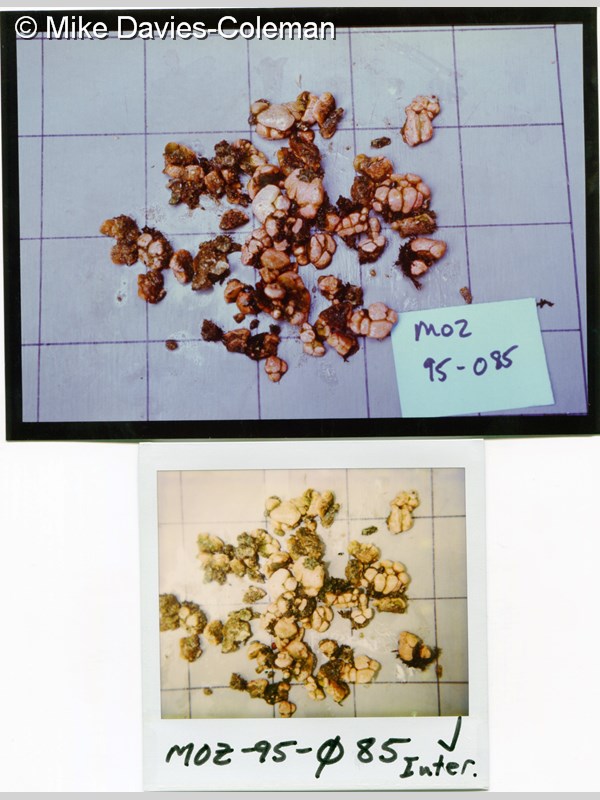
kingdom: Animalia
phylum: Chordata
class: Ascidiacea
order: Aplousobranchia
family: Holozoidae
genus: Sigillina
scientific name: Sigillina
